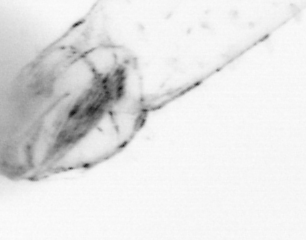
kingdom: Animalia
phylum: Chaetognatha
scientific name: Chaetognatha
